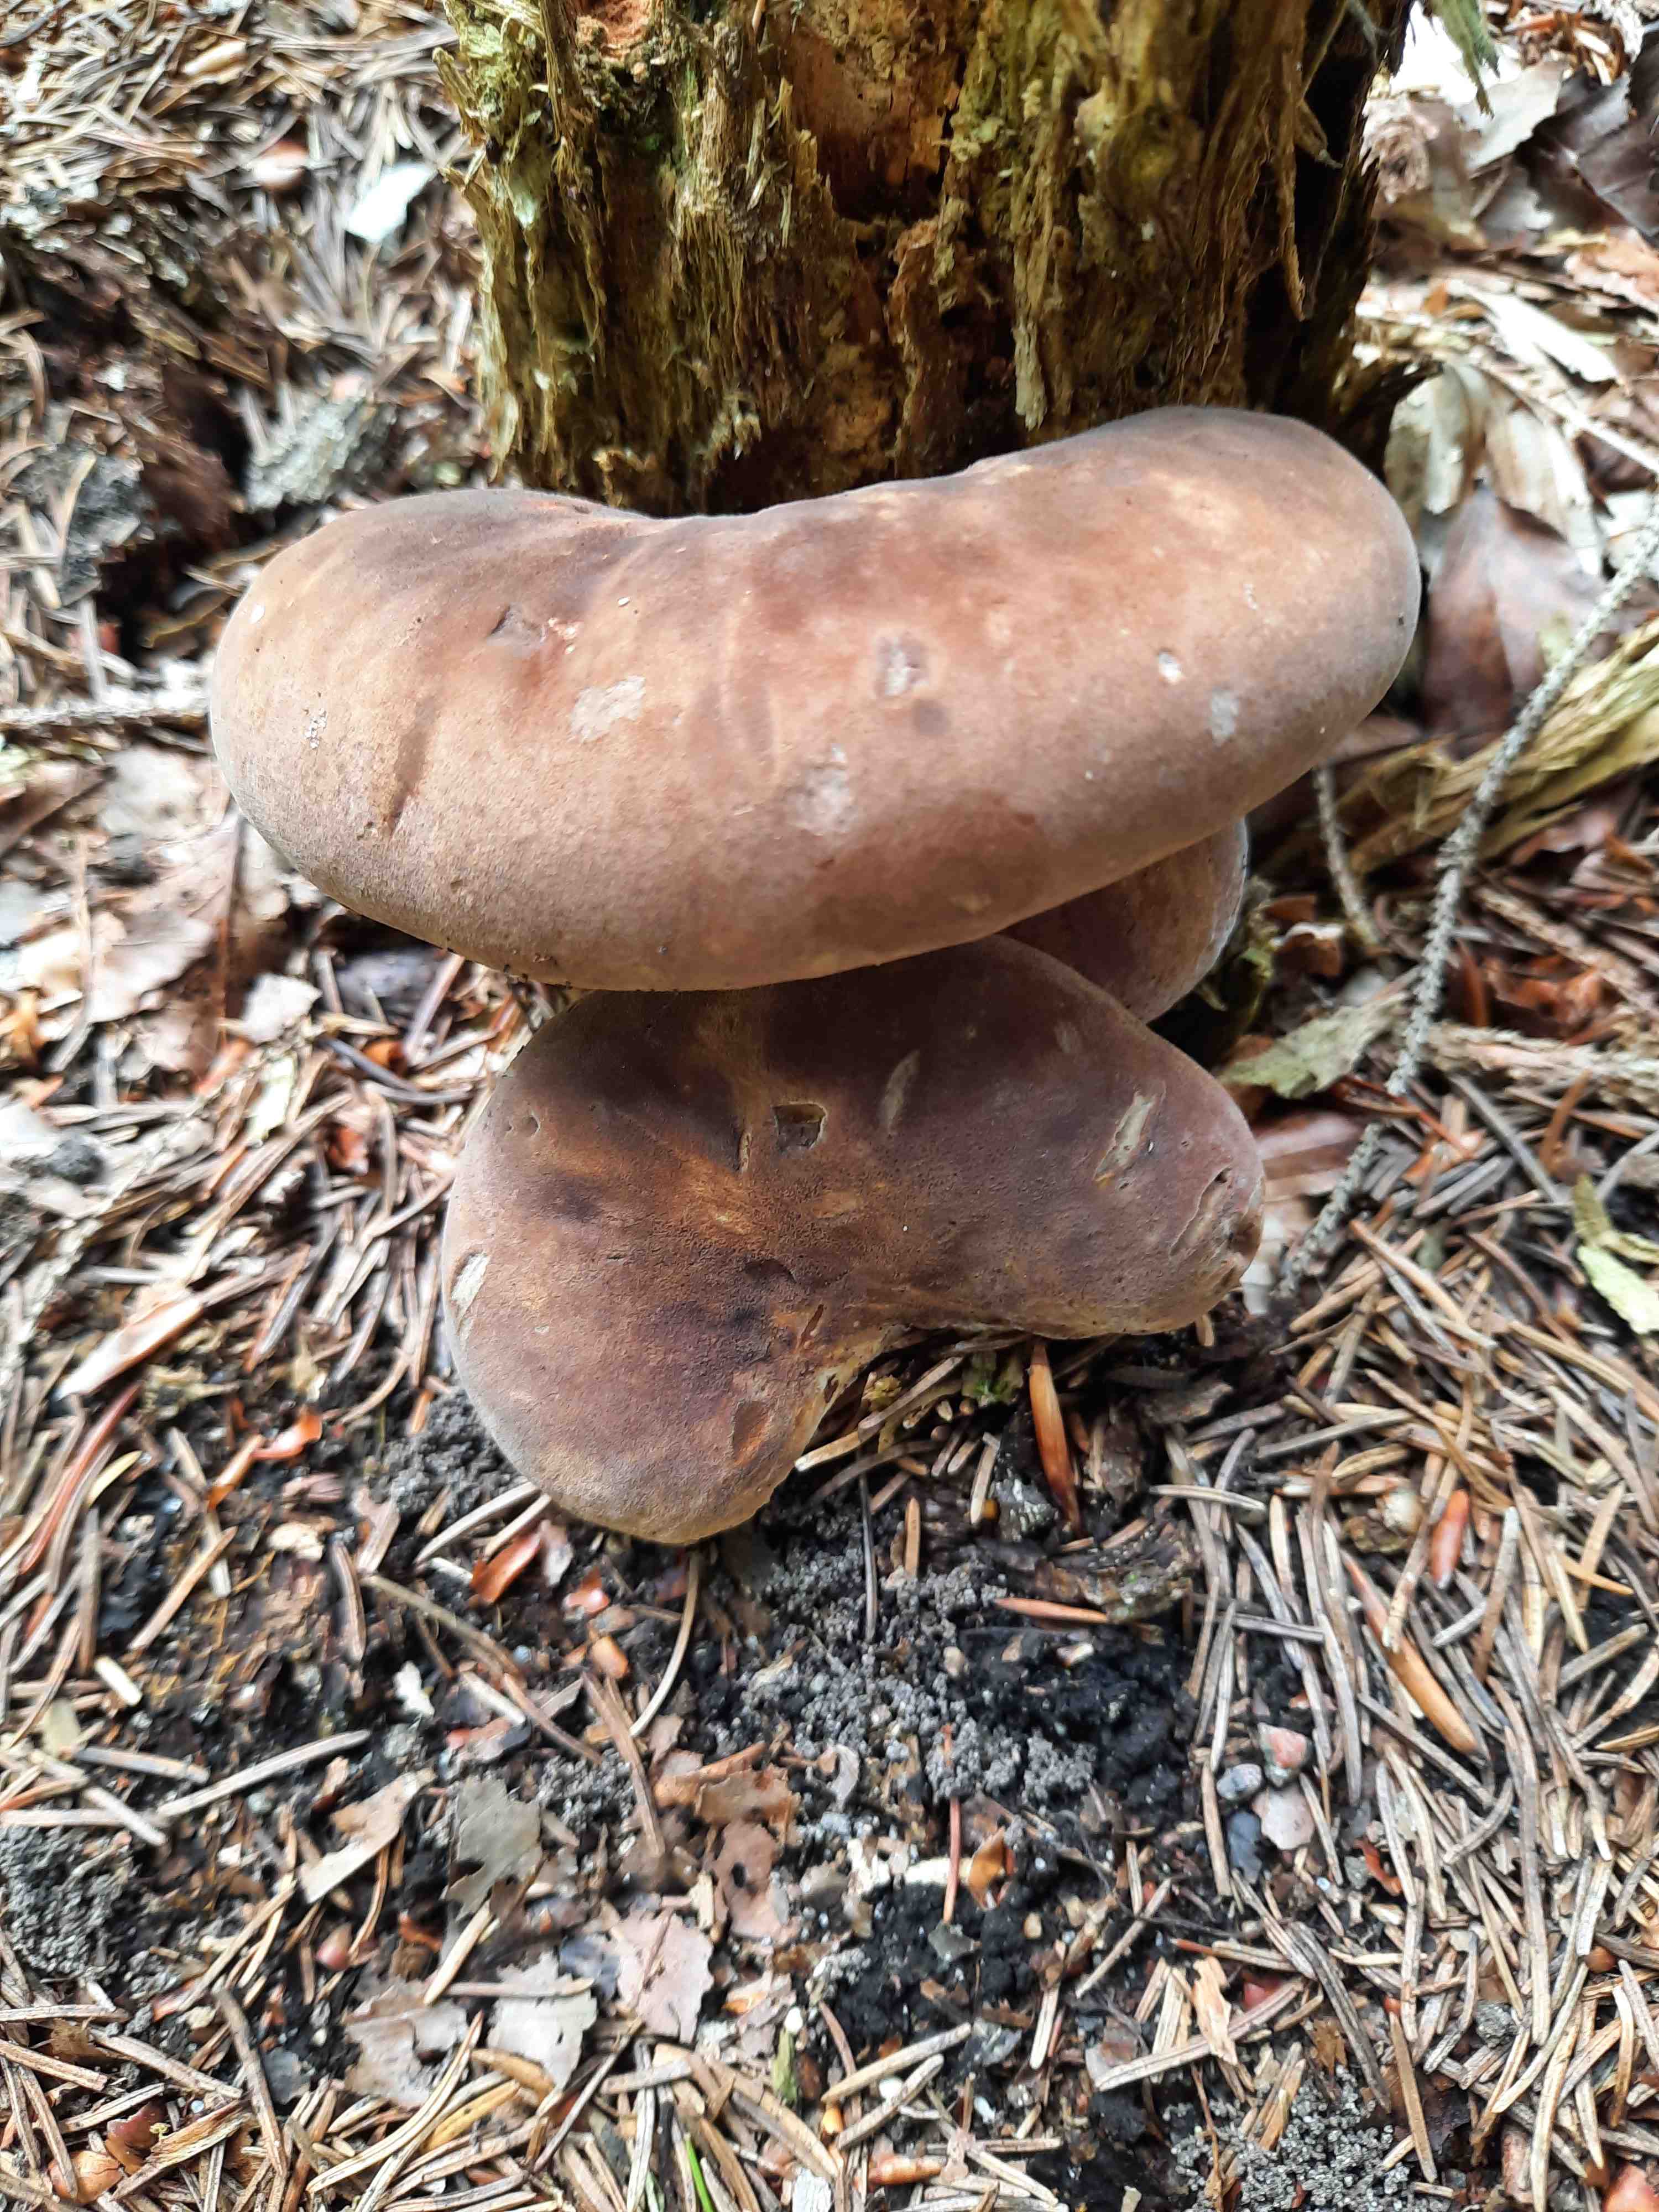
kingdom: Fungi
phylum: Basidiomycota
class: Agaricomycetes
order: Boletales
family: Tapinellaceae
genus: Tapinella
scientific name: Tapinella atrotomentosa
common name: sortfiltet viftesvamp
